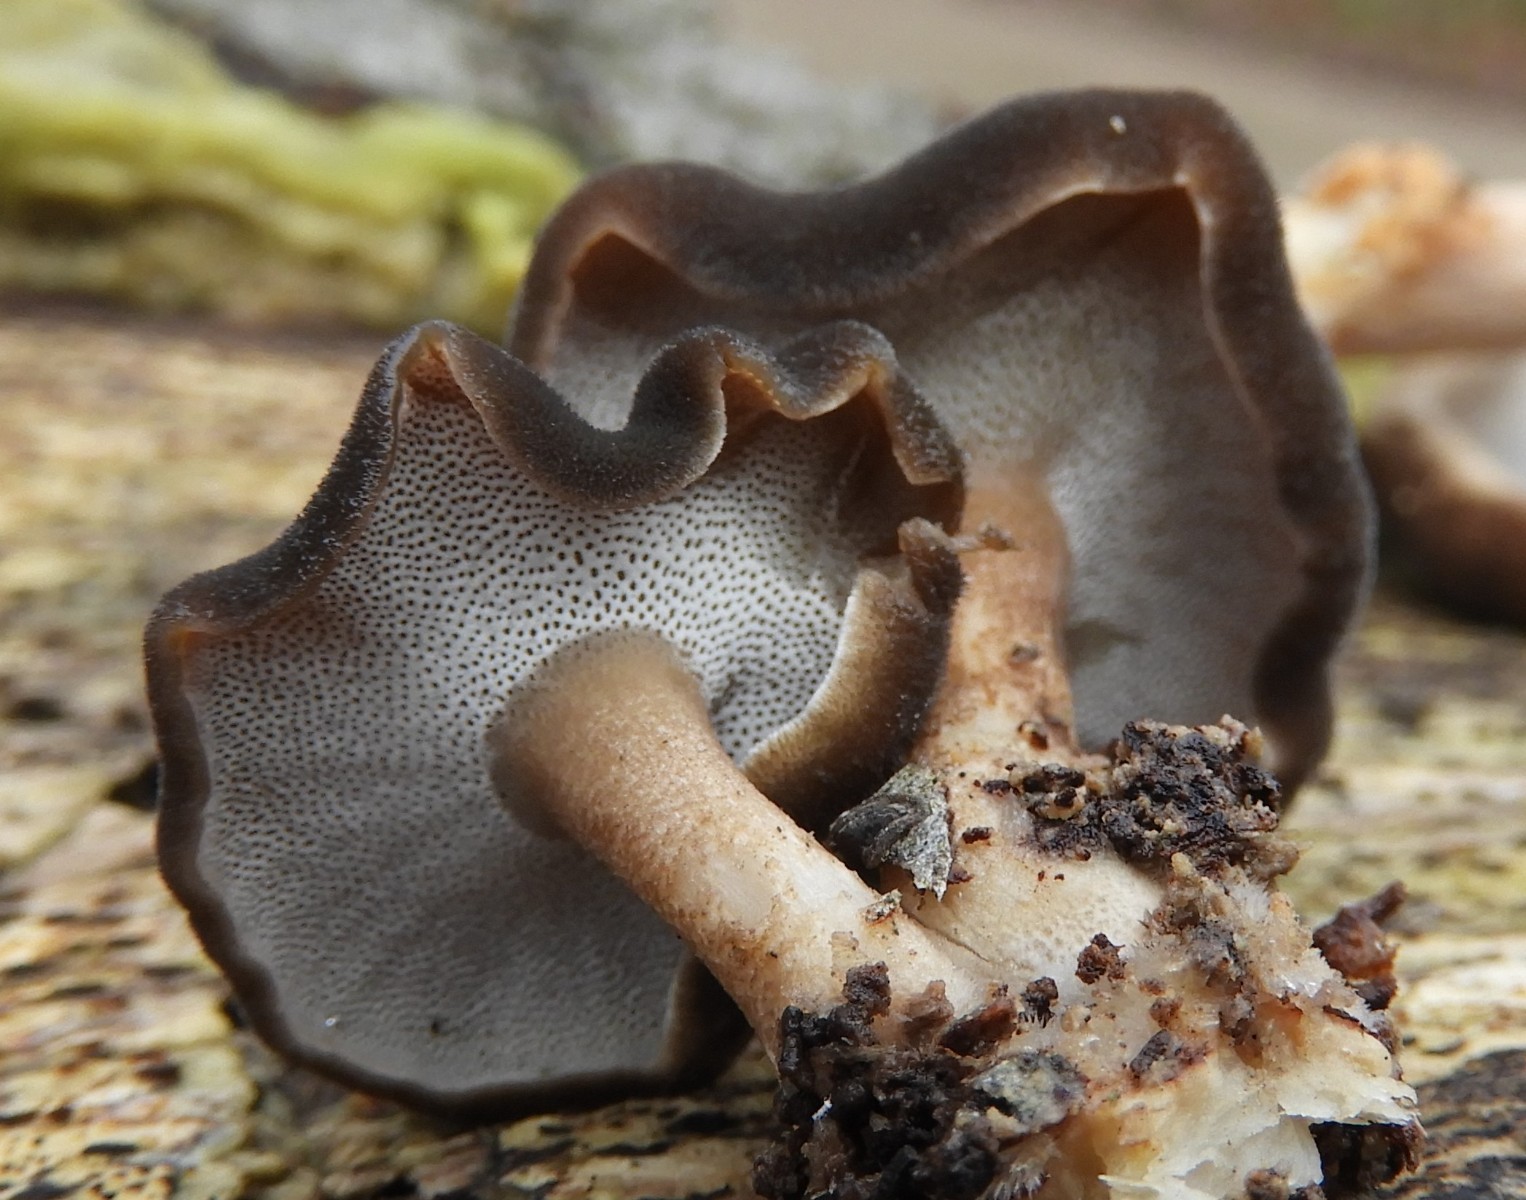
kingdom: Fungi
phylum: Basidiomycota
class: Agaricomycetes
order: Polyporales
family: Polyporaceae
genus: Lentinus
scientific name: Lentinus brumalis
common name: vinter-stilkporesvamp
